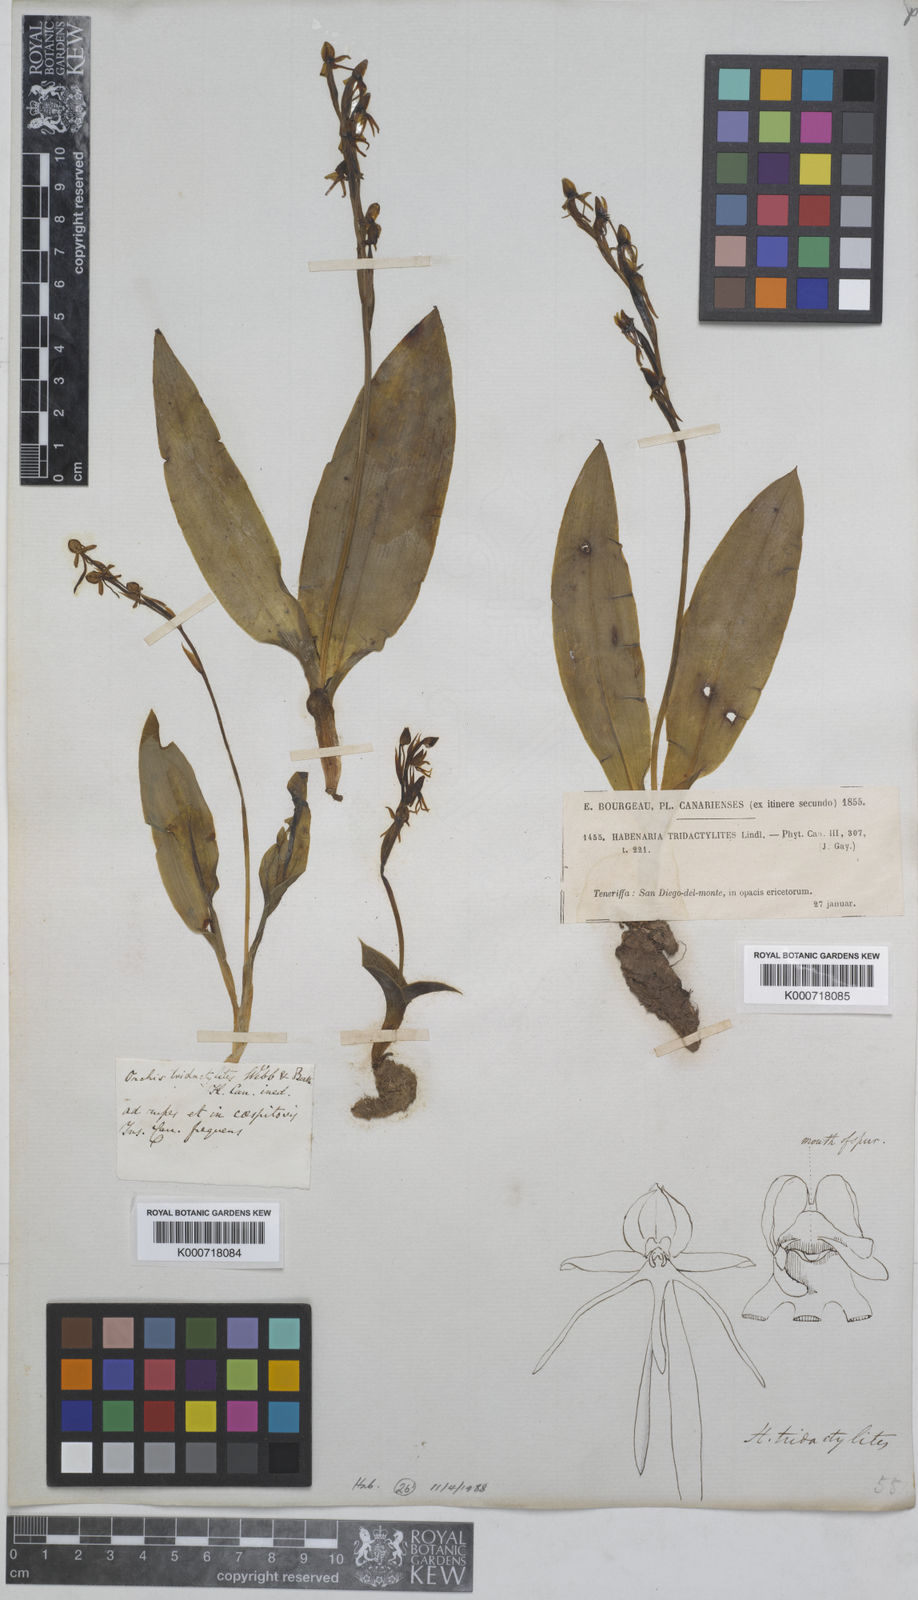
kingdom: Plantae
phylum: Tracheophyta
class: Liliopsida
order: Asparagales
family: Orchidaceae
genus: Habenaria
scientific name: Habenaria tridactylites
